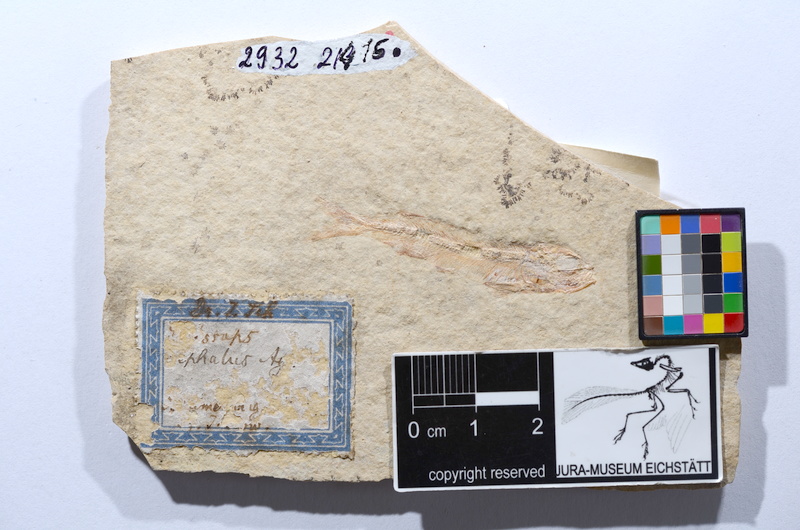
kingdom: Animalia
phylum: Chordata
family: Allothrissopidae
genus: Allothrissops
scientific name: Allothrissops mesogaster
